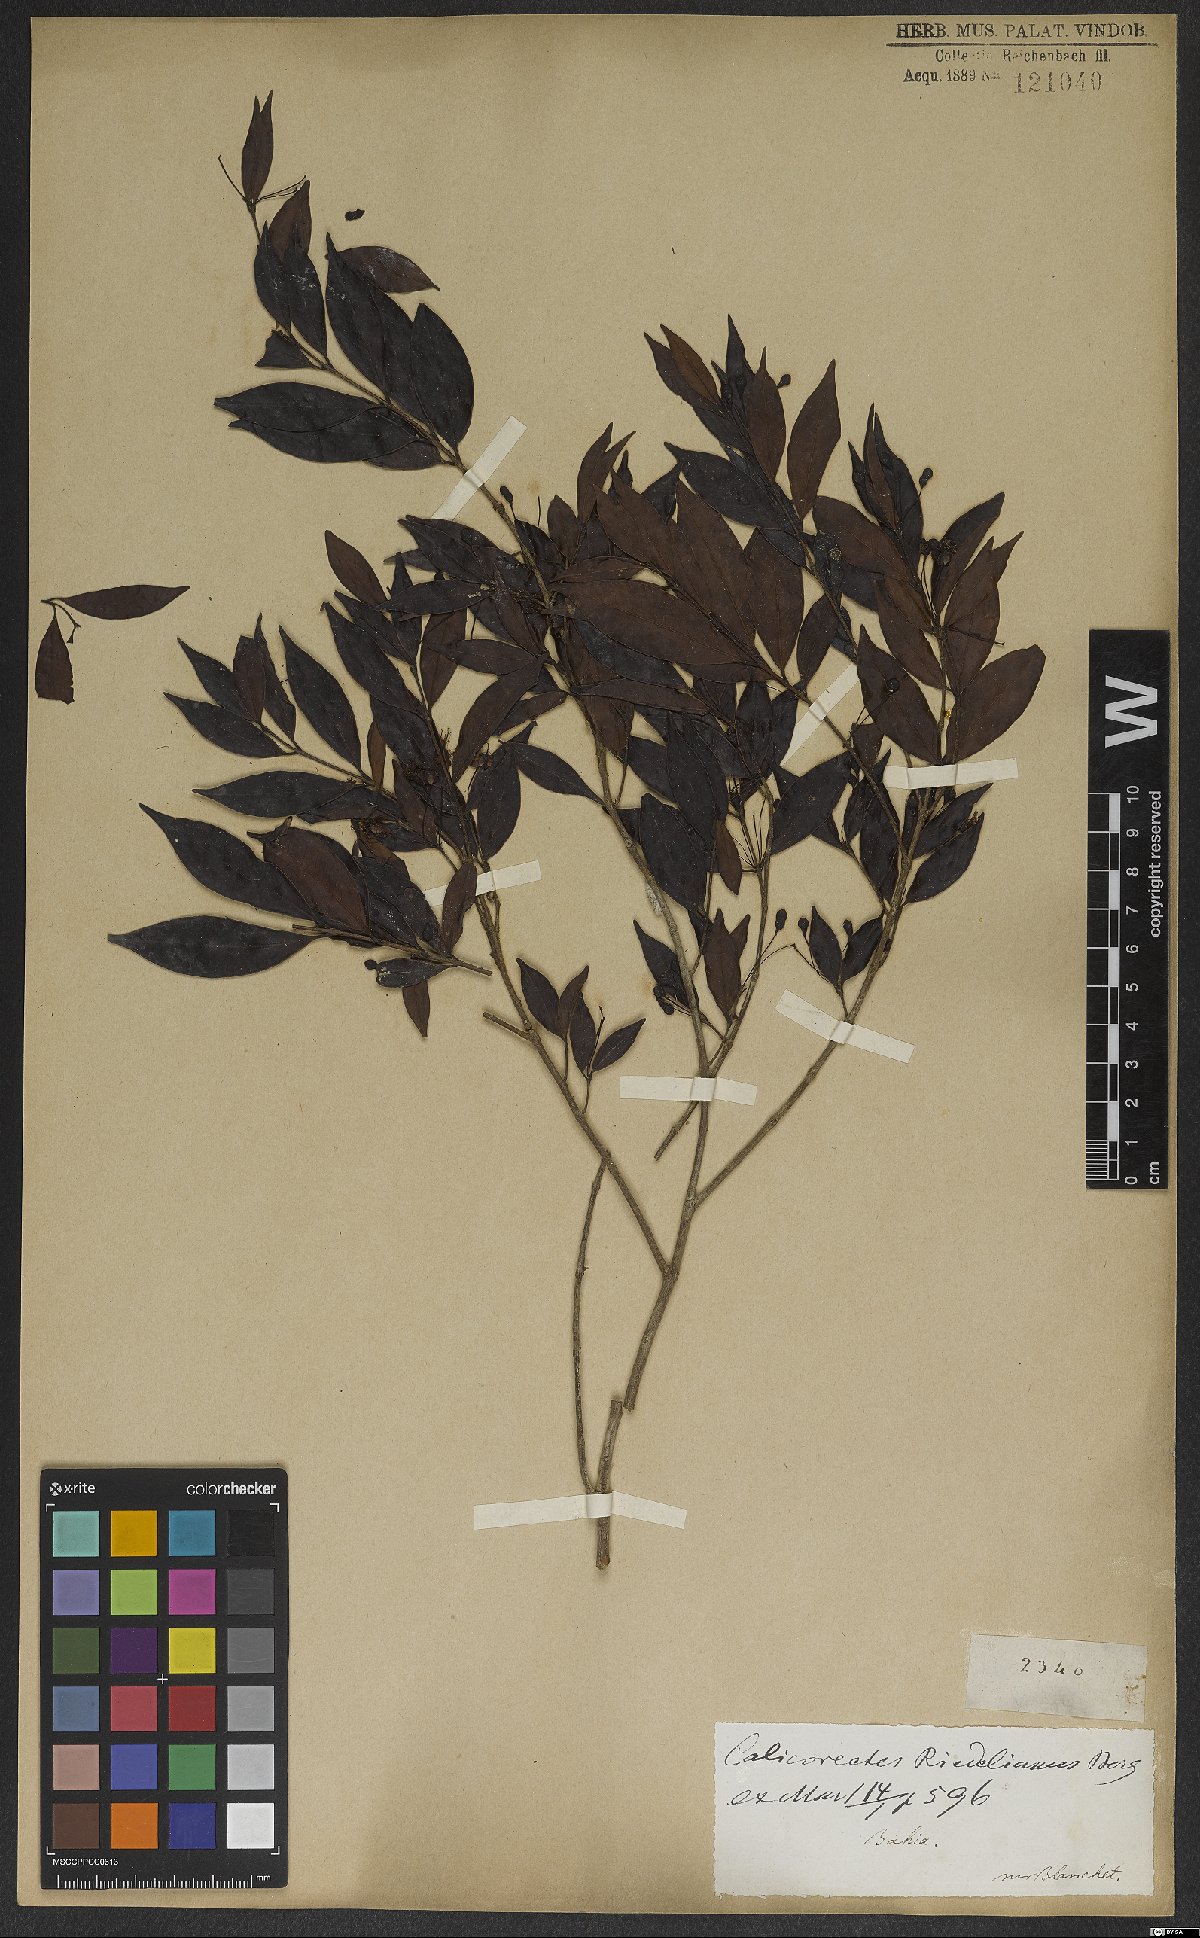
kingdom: Plantae
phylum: Tracheophyta
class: Magnoliopsida
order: Myrtales
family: Myrtaceae
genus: Eugenia
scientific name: Eugenia subterminalis
